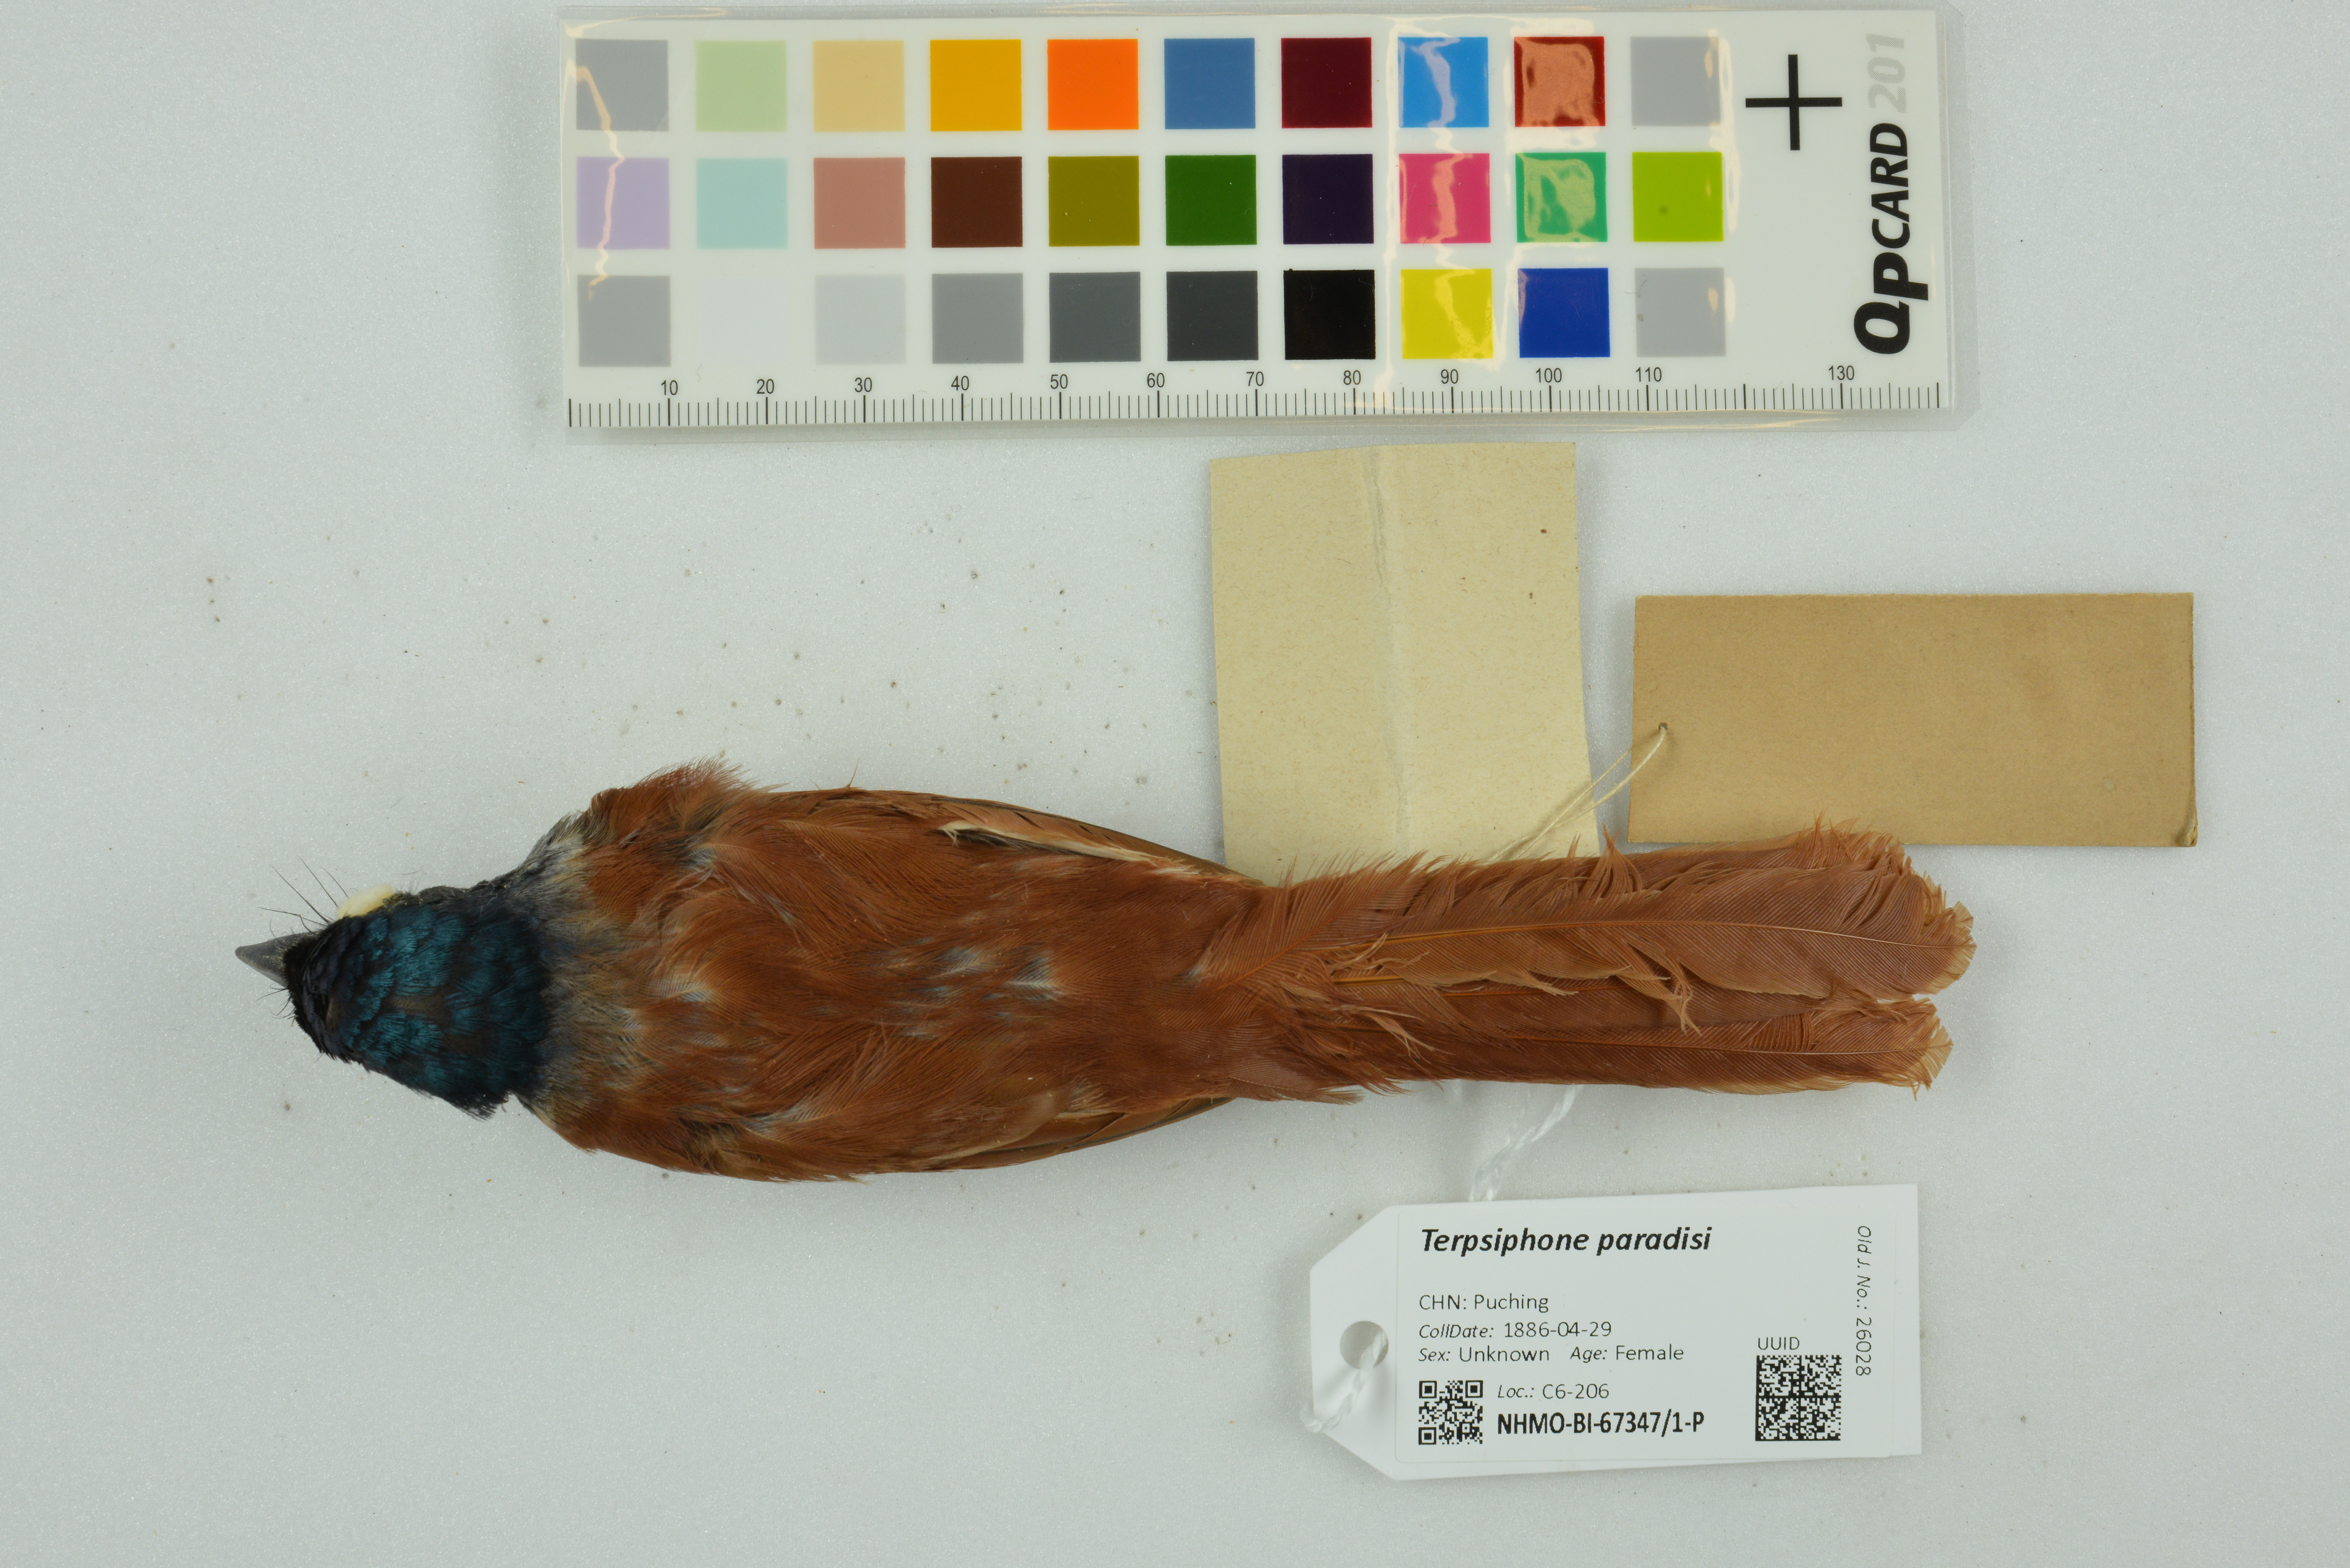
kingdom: Animalia
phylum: Chordata
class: Aves
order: Passeriformes
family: Monarchidae
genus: Terpsiphone
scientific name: Terpsiphone paradisi
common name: Indian paradise flycatcher
